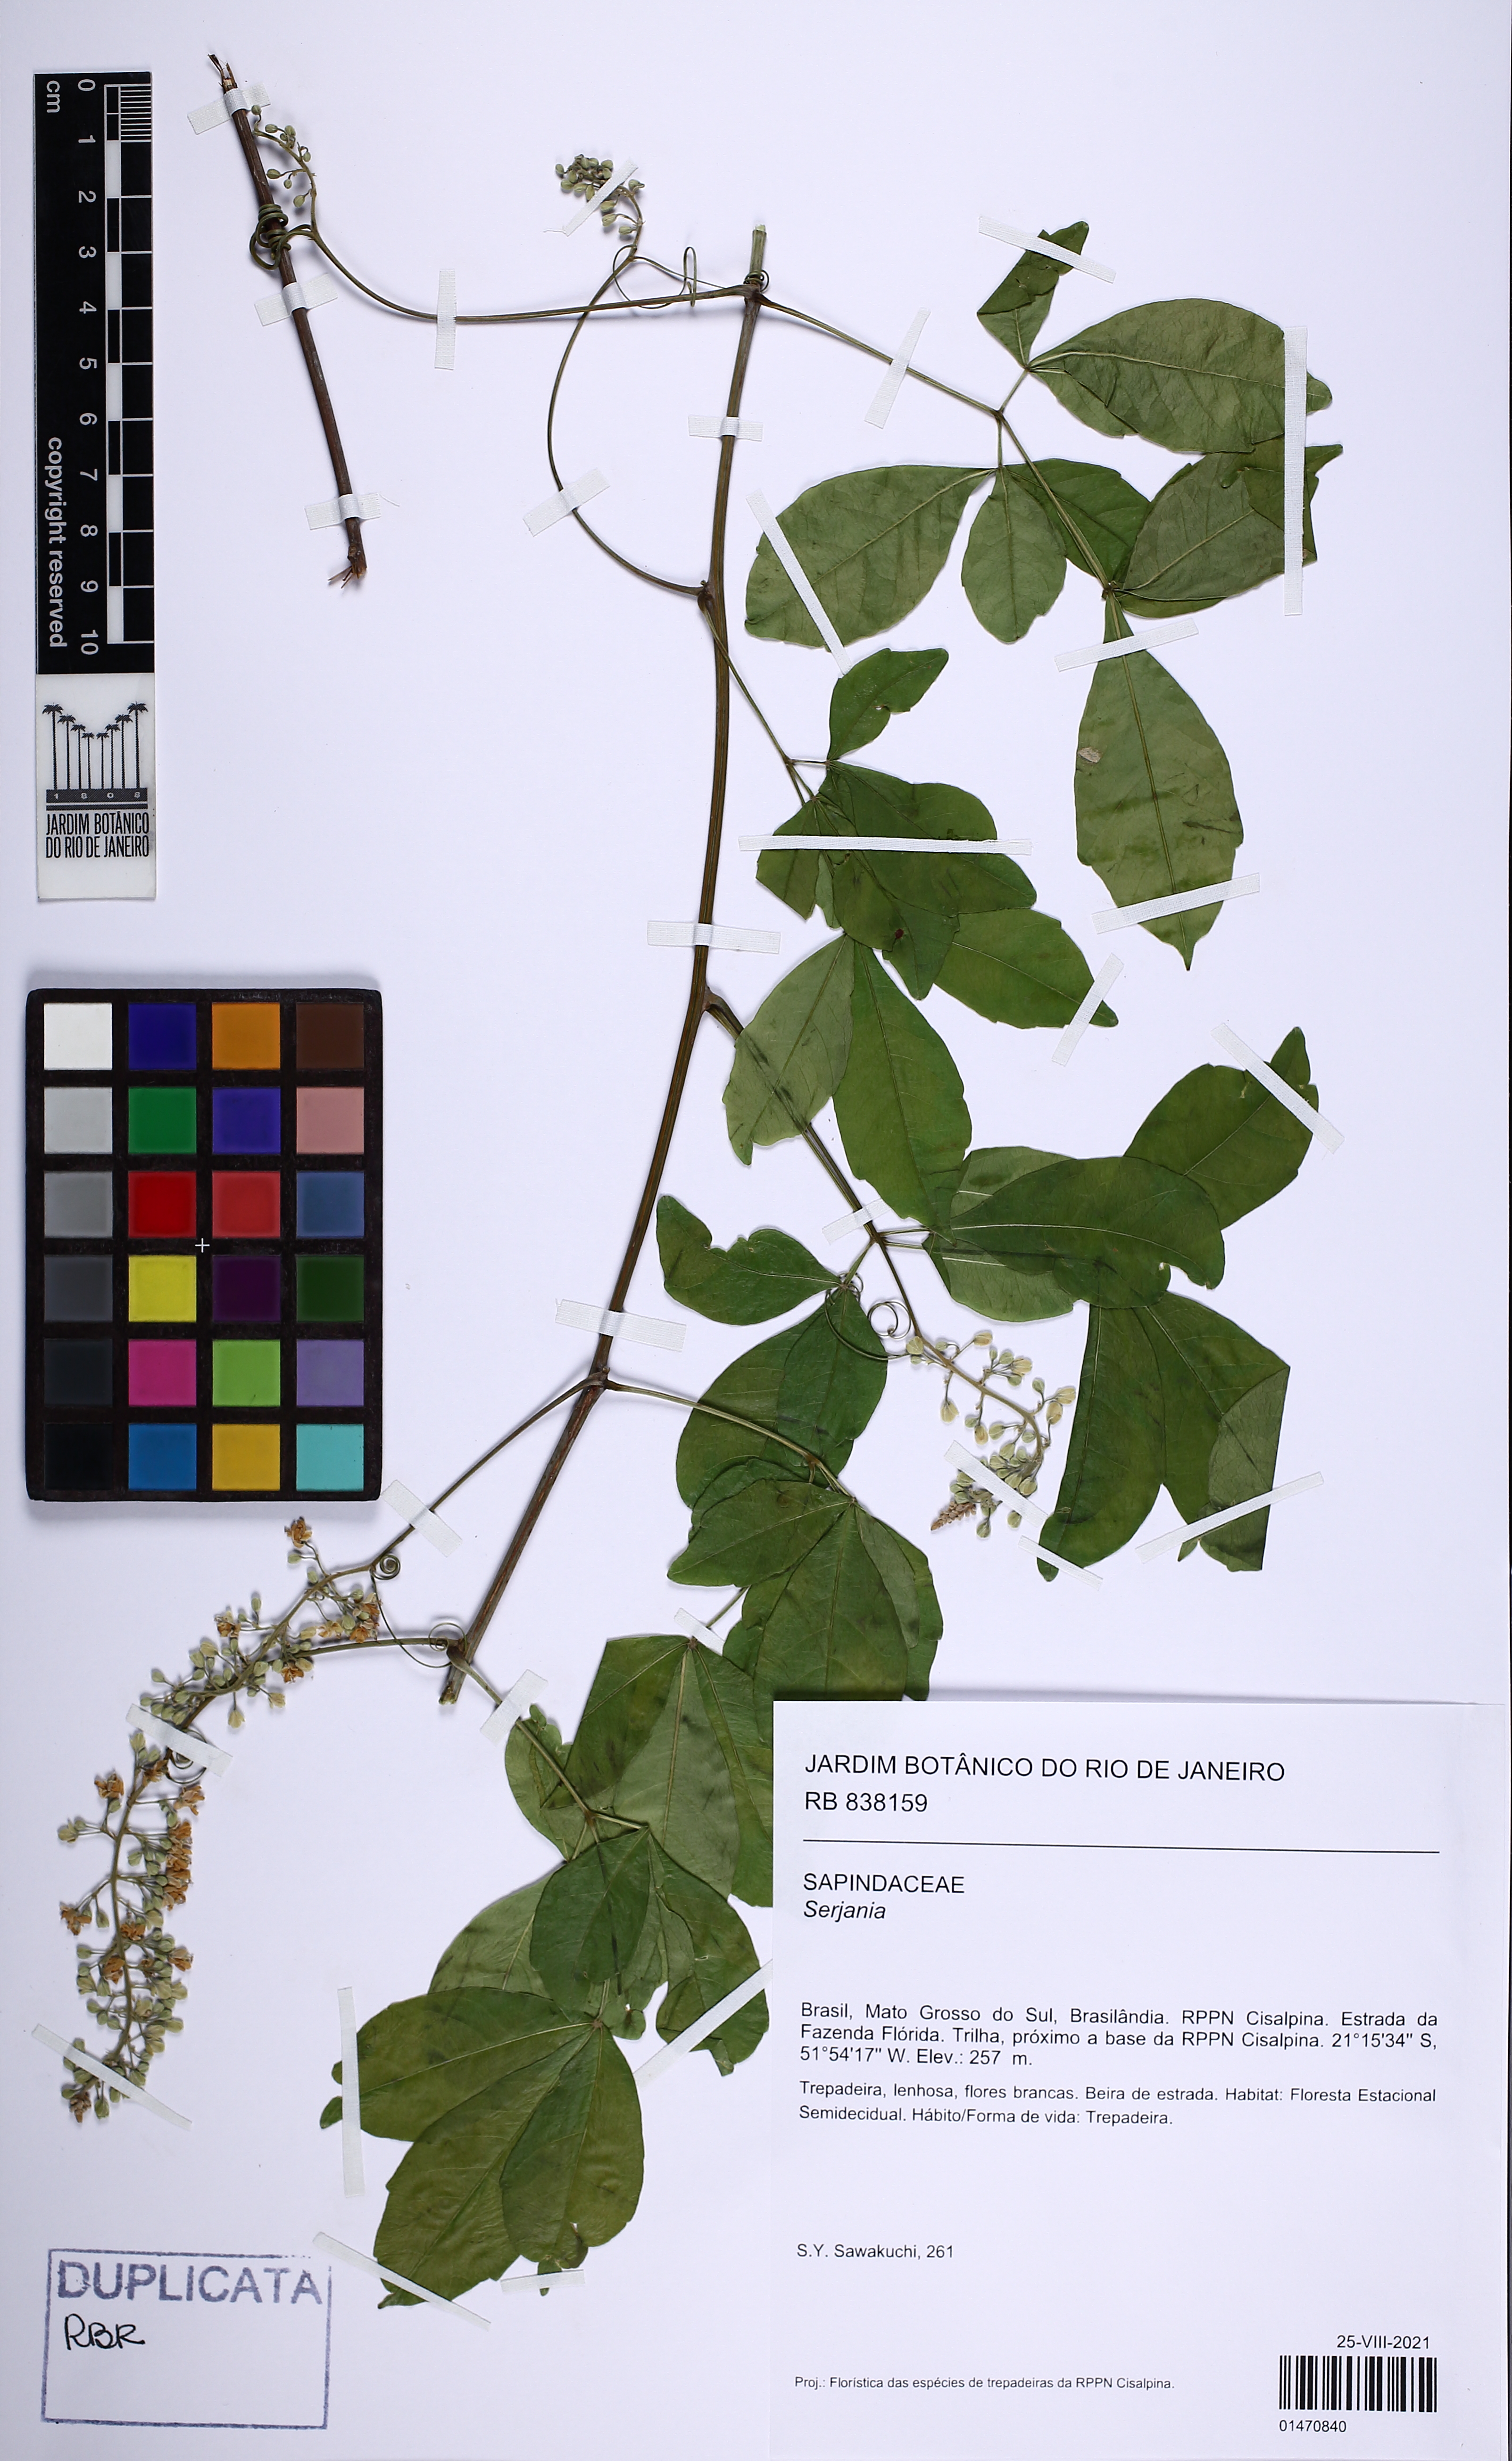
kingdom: Plantae
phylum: Tracheophyta
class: Magnoliopsida
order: Sapindales
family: Sapindaceae
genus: Serjania
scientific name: Serjania
